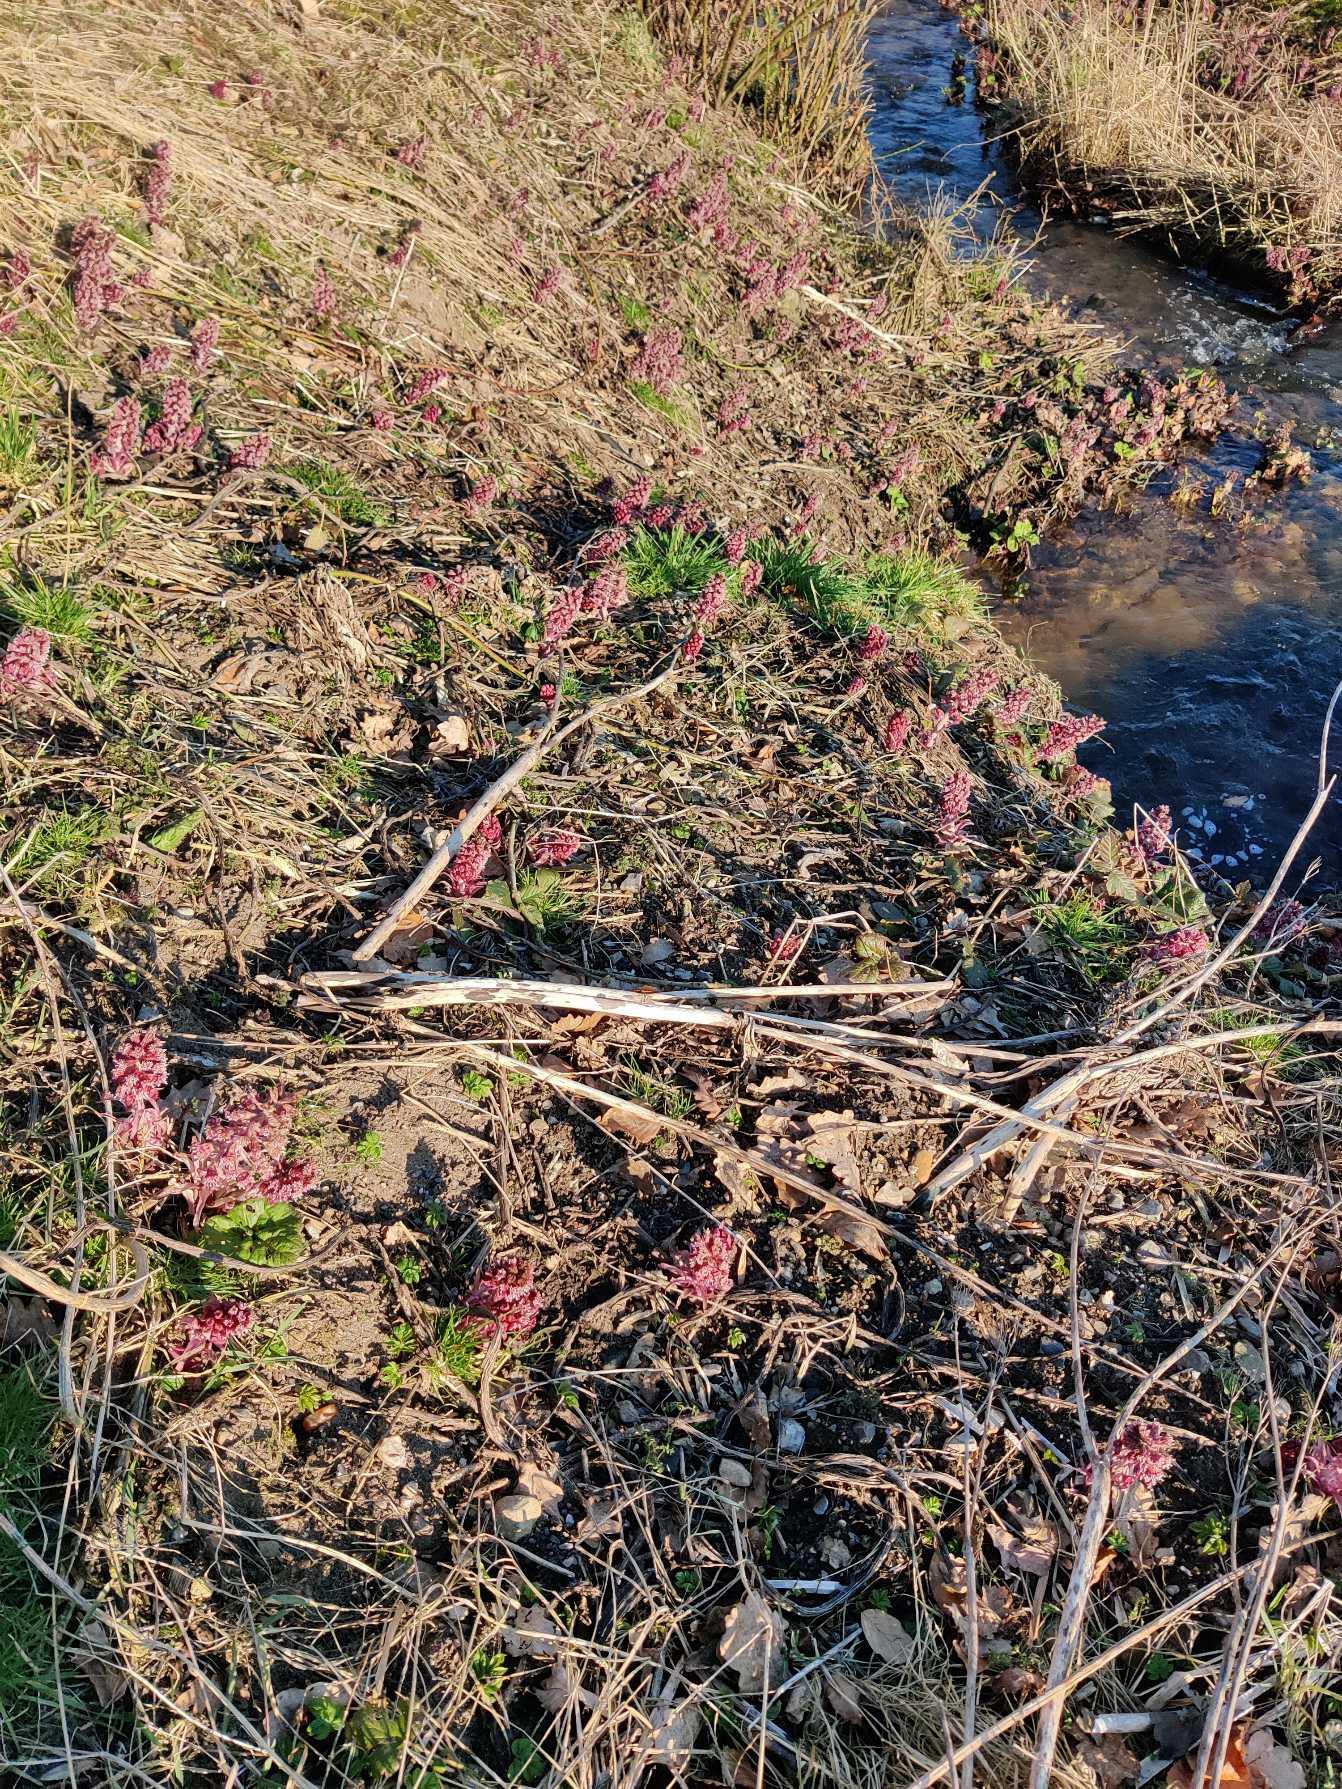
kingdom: Plantae
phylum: Tracheophyta
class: Magnoliopsida
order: Asterales
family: Asteraceae
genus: Petasites
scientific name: Petasites hybridus
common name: Rød hestehov
